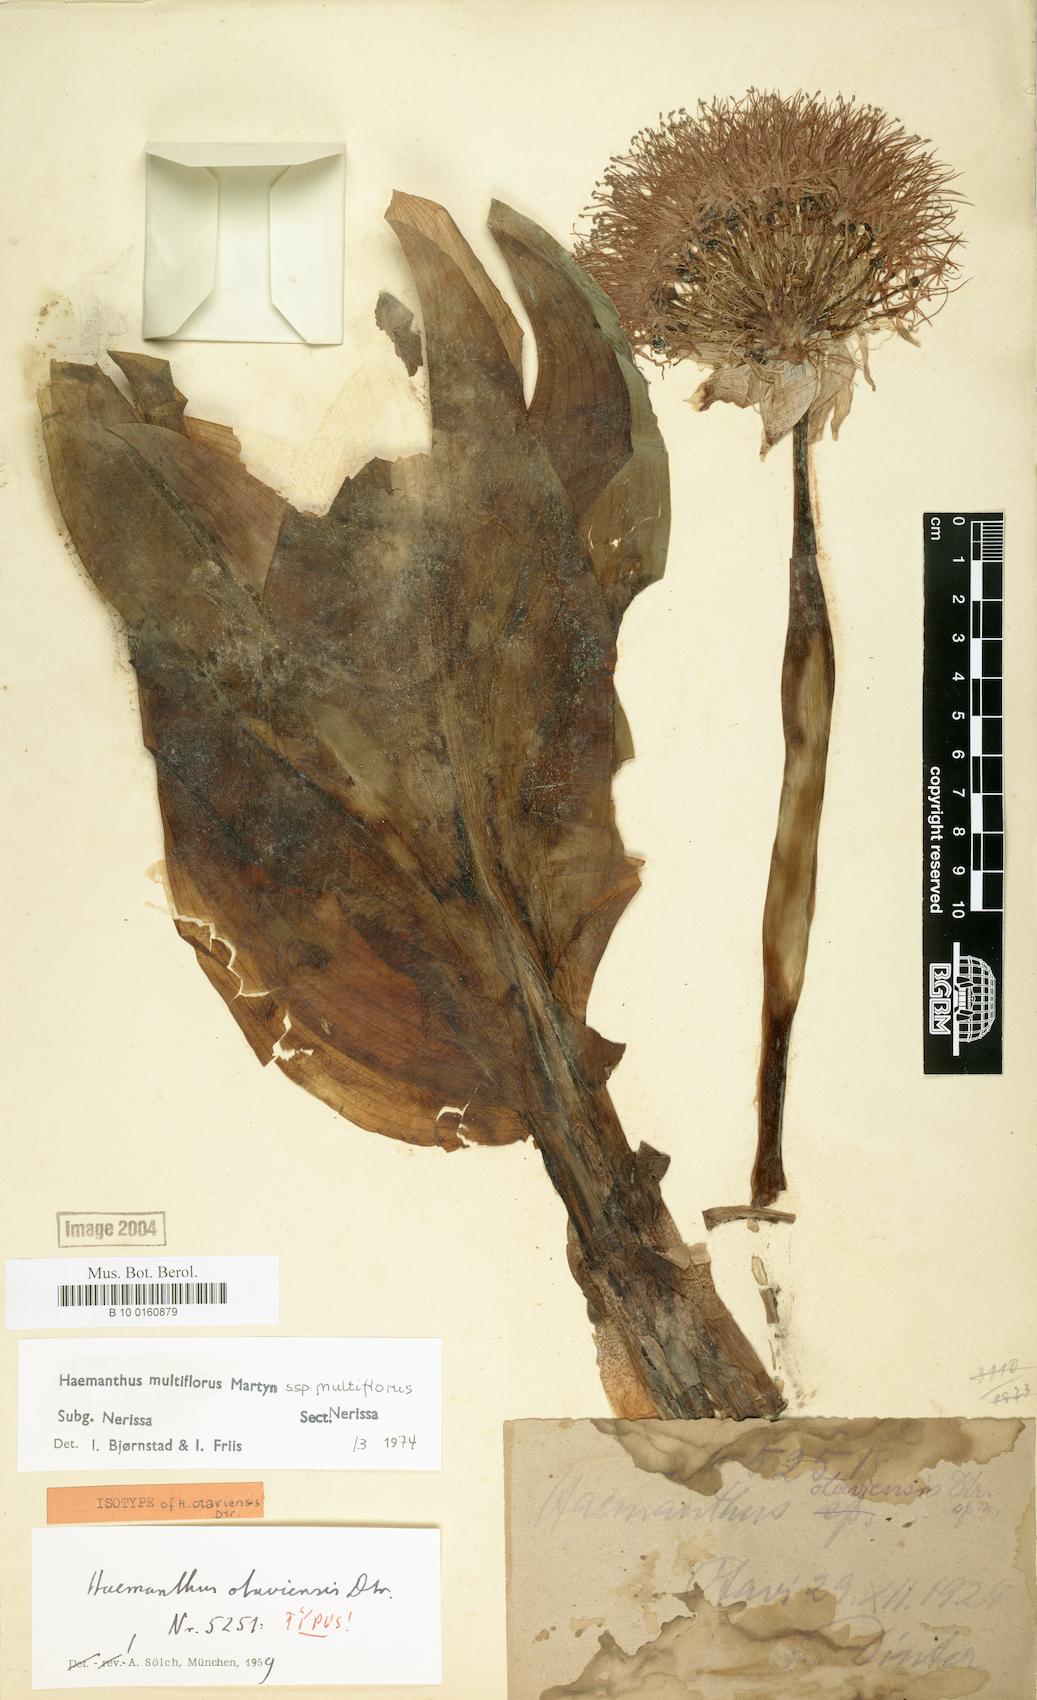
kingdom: Plantae
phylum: Tracheophyta
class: Liliopsida
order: Asparagales
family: Amaryllidaceae
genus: Scadoxus
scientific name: Scadoxus multiflorus
